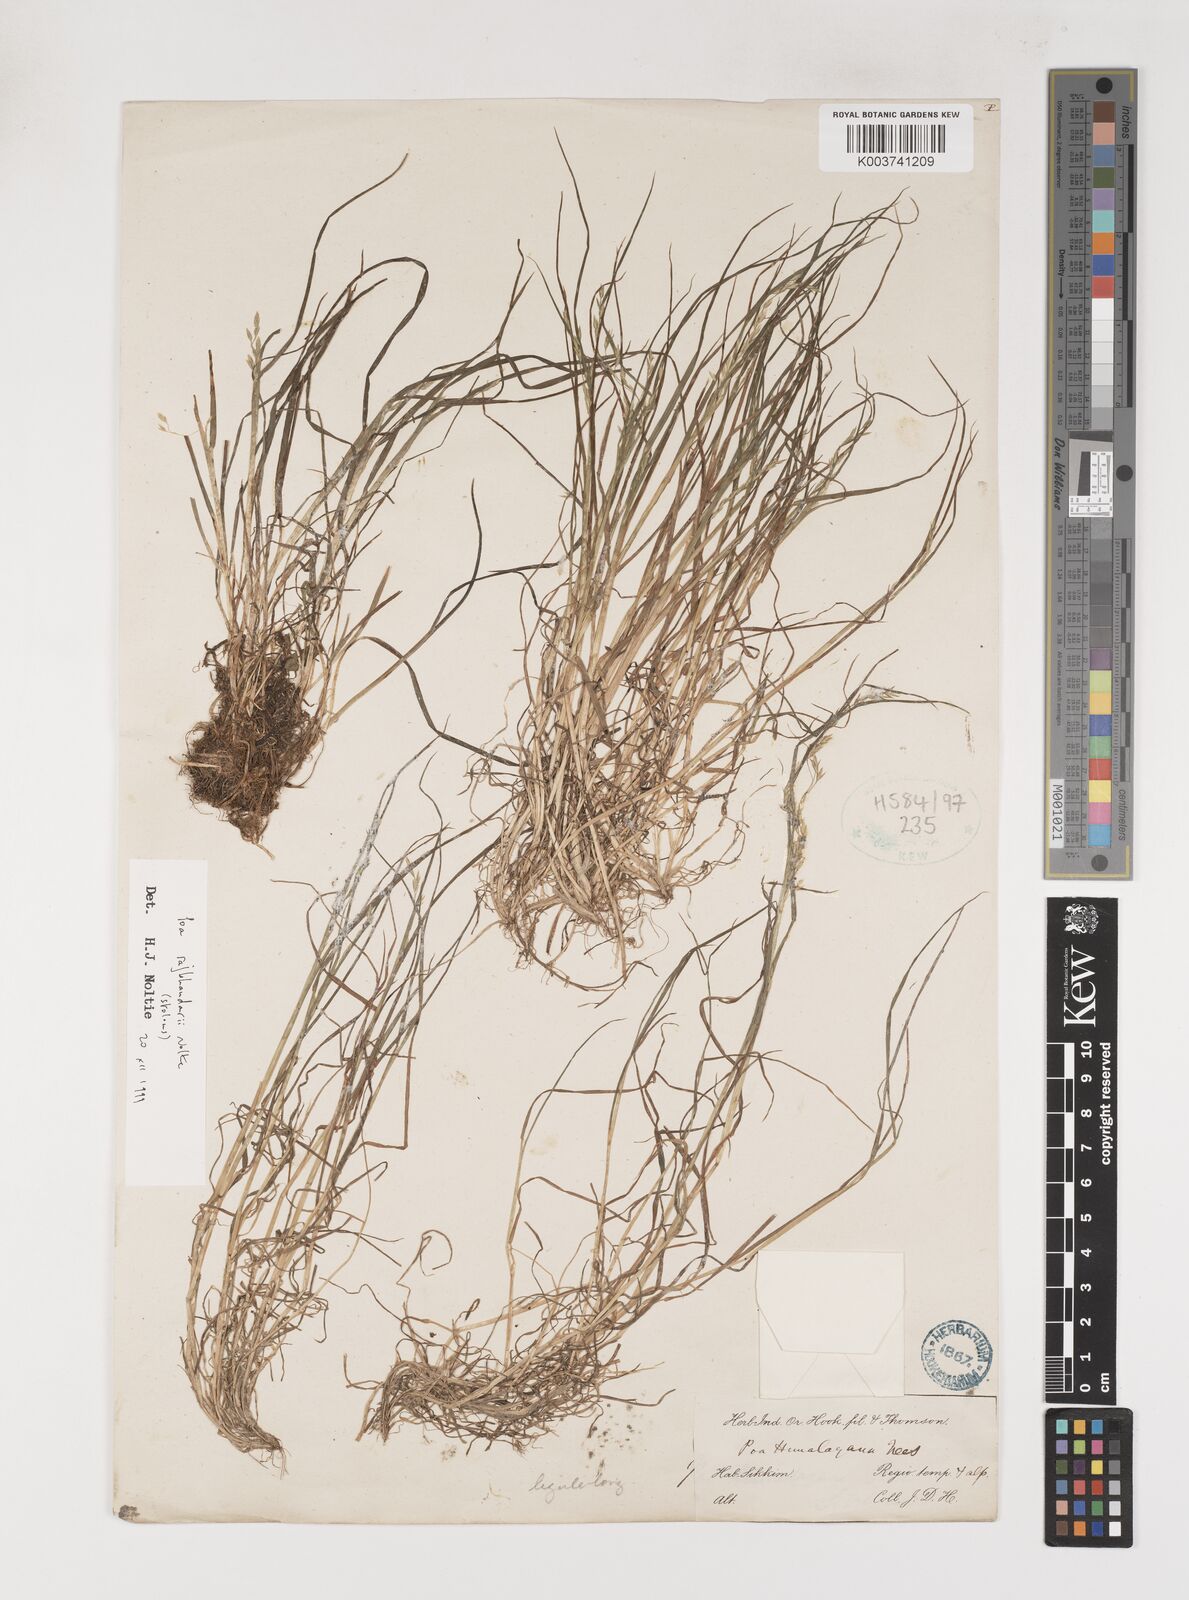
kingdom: Plantae
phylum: Tracheophyta
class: Liliopsida
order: Poales
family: Poaceae
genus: Poa
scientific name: Poa rajbhandarii
